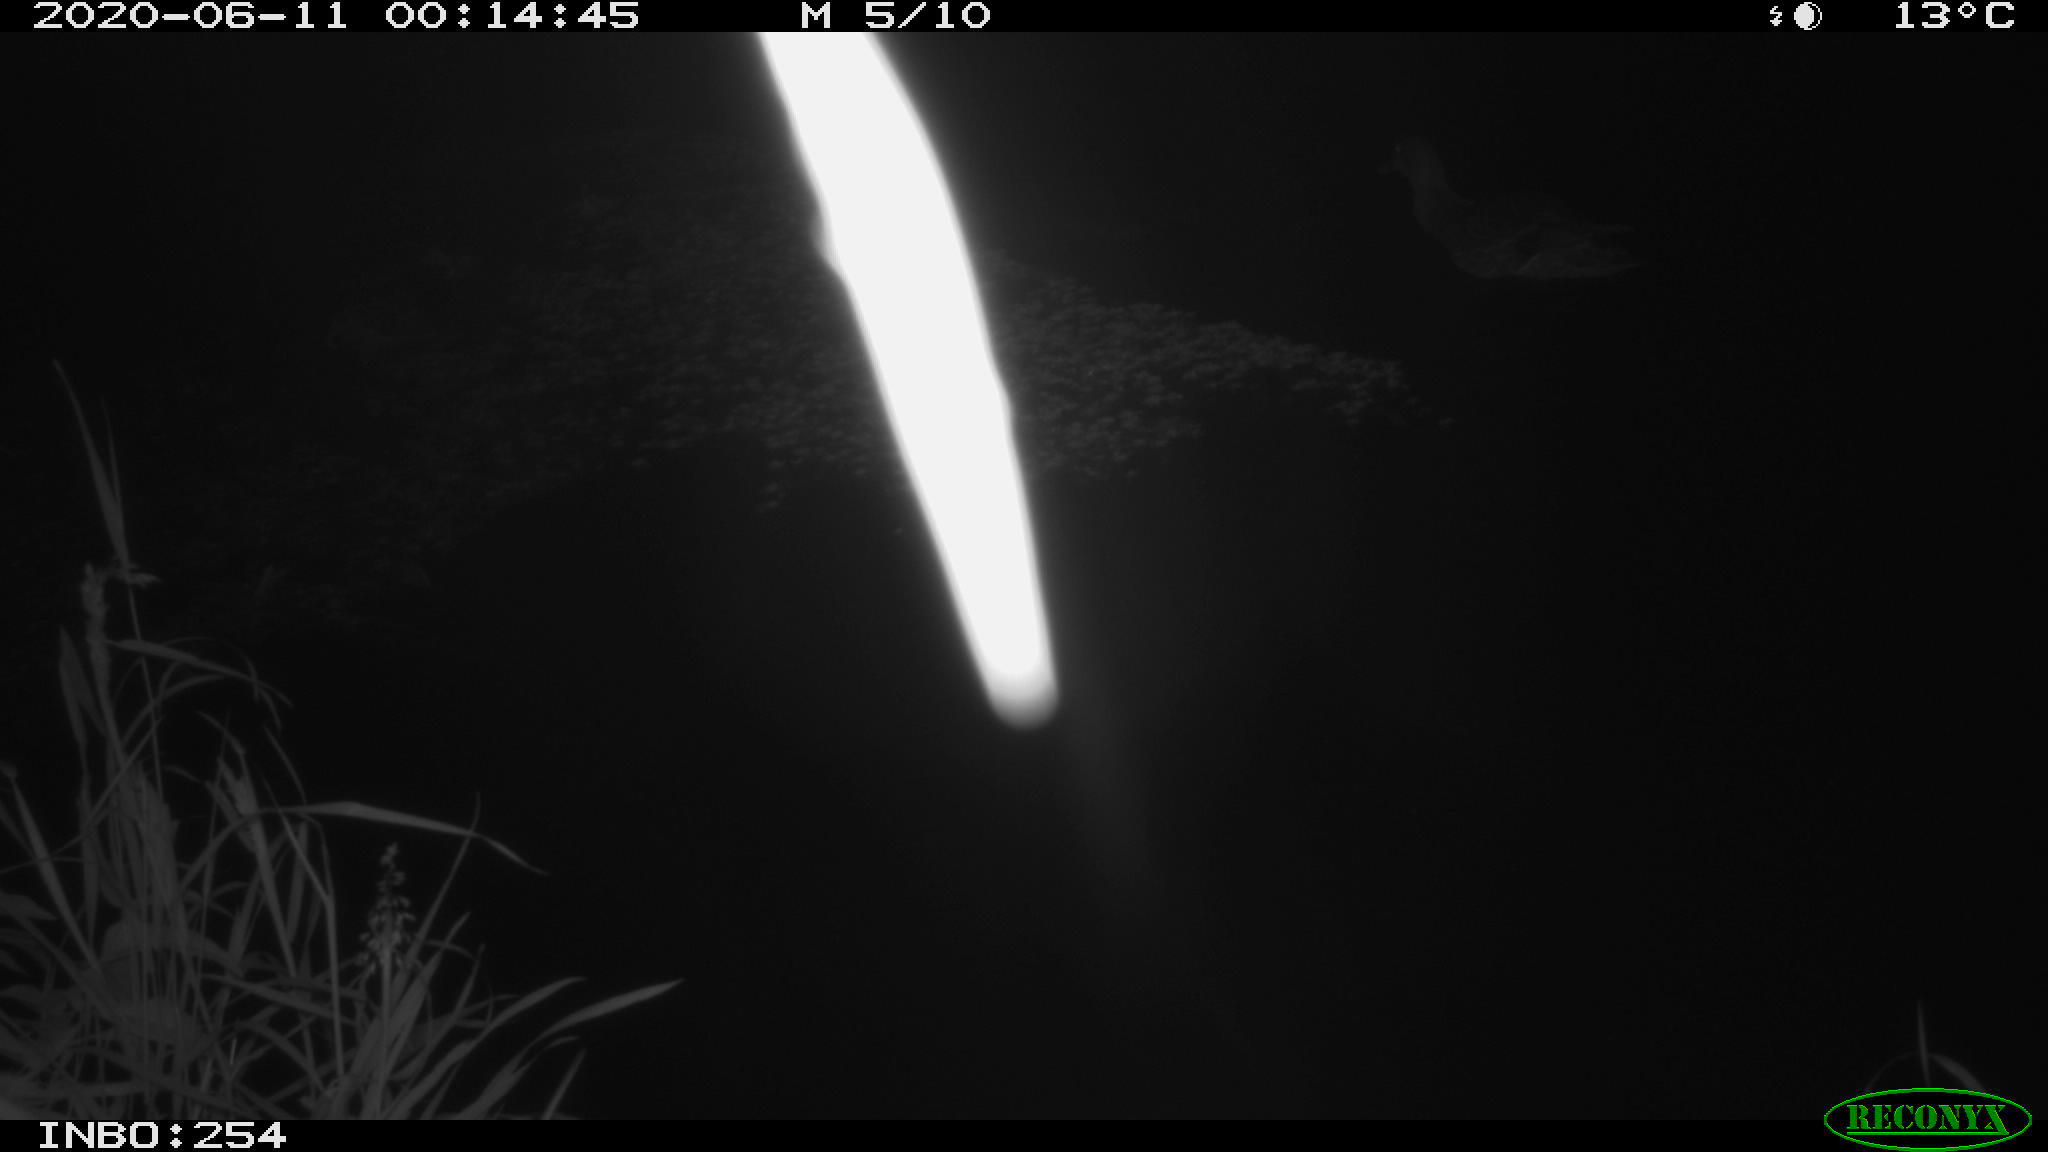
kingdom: Animalia
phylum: Chordata
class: Aves
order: Anseriformes
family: Anatidae
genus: Anas
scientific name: Anas platyrhynchos
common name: Mallard
